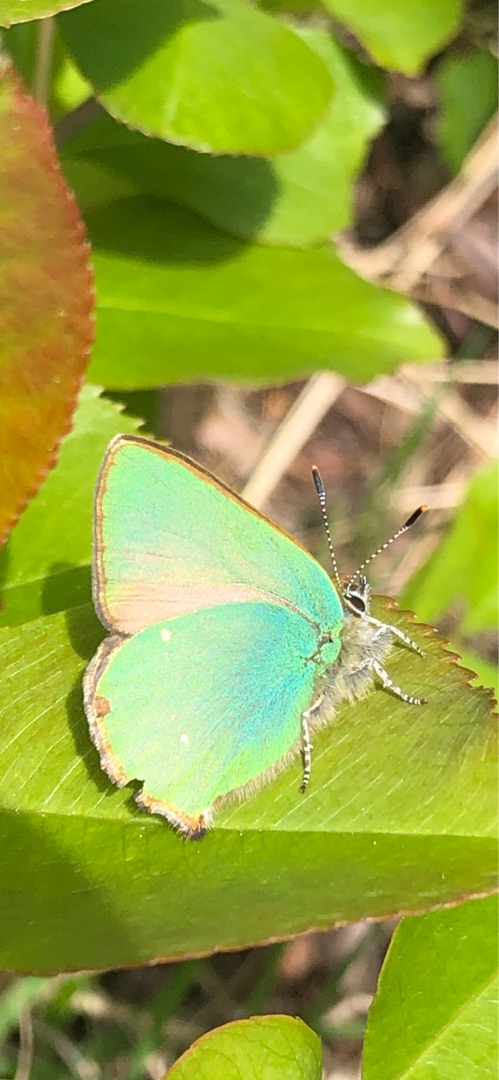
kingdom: Animalia
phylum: Arthropoda
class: Insecta
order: Lepidoptera
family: Lycaenidae
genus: Callophrys
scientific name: Callophrys rubi
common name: Grøn busksommerfugl
